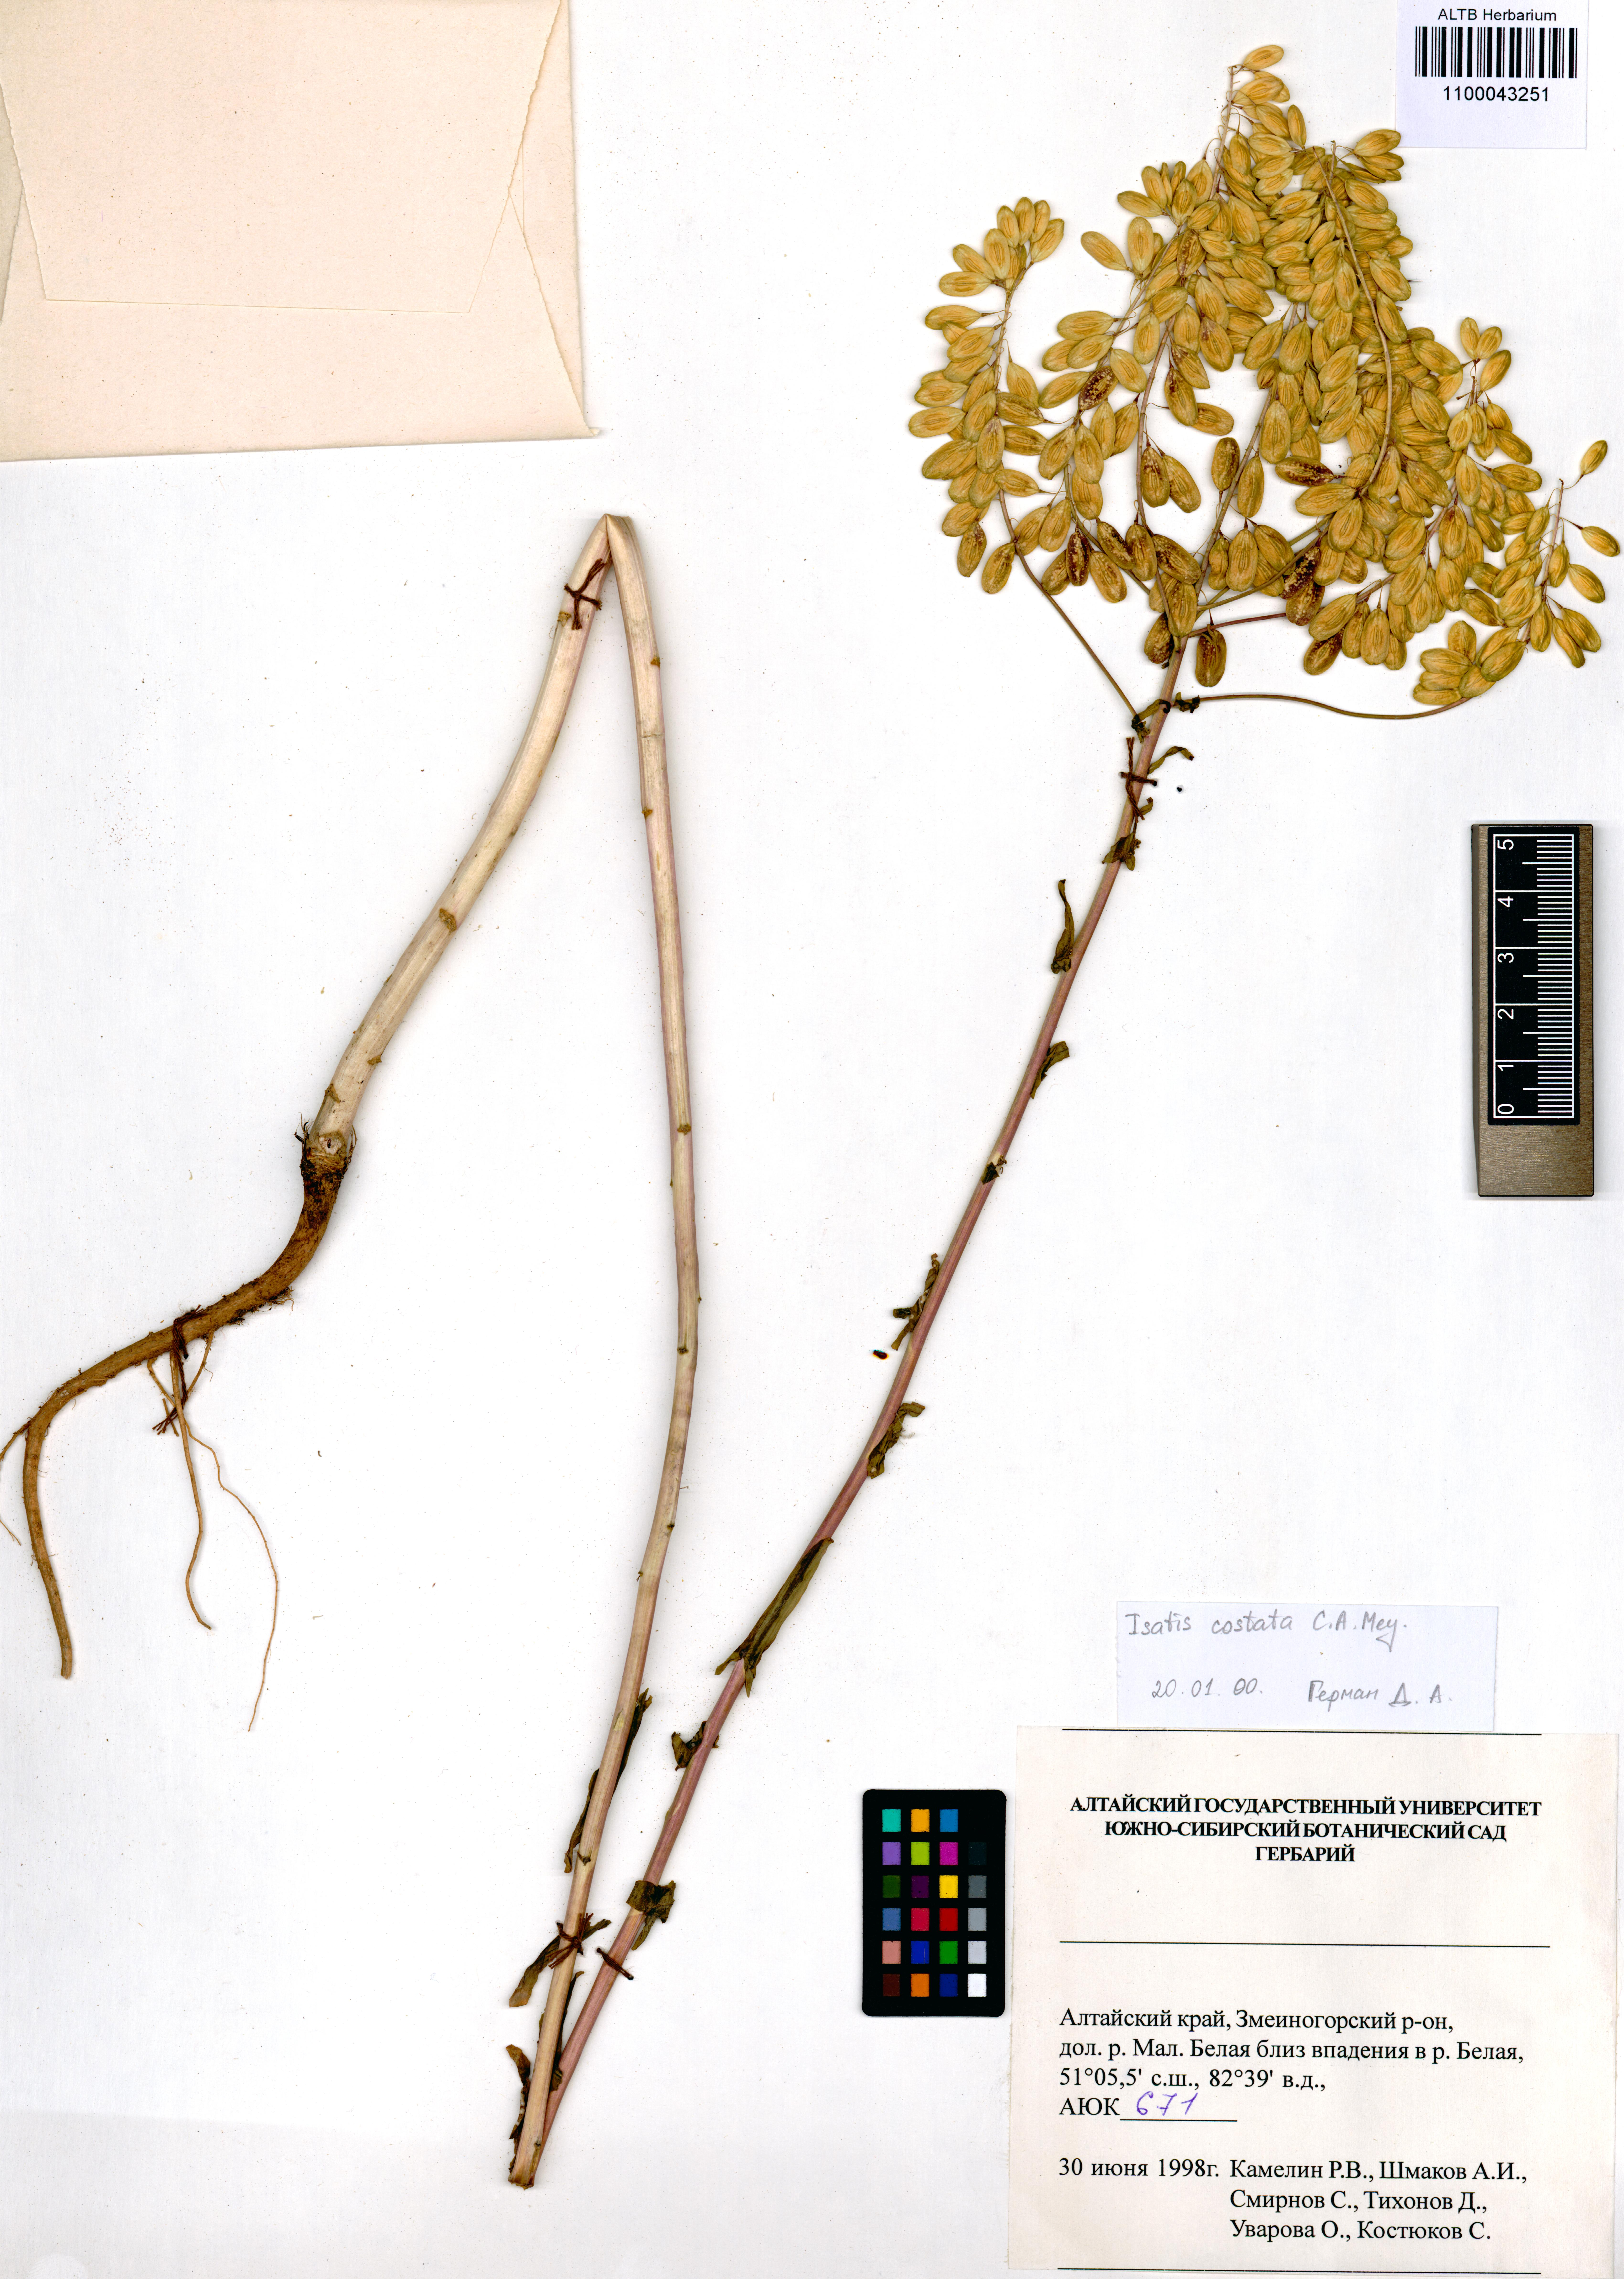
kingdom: Plantae
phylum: Tracheophyta
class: Magnoliopsida
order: Brassicales
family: Brassicaceae
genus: Isatis
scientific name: Isatis costata
